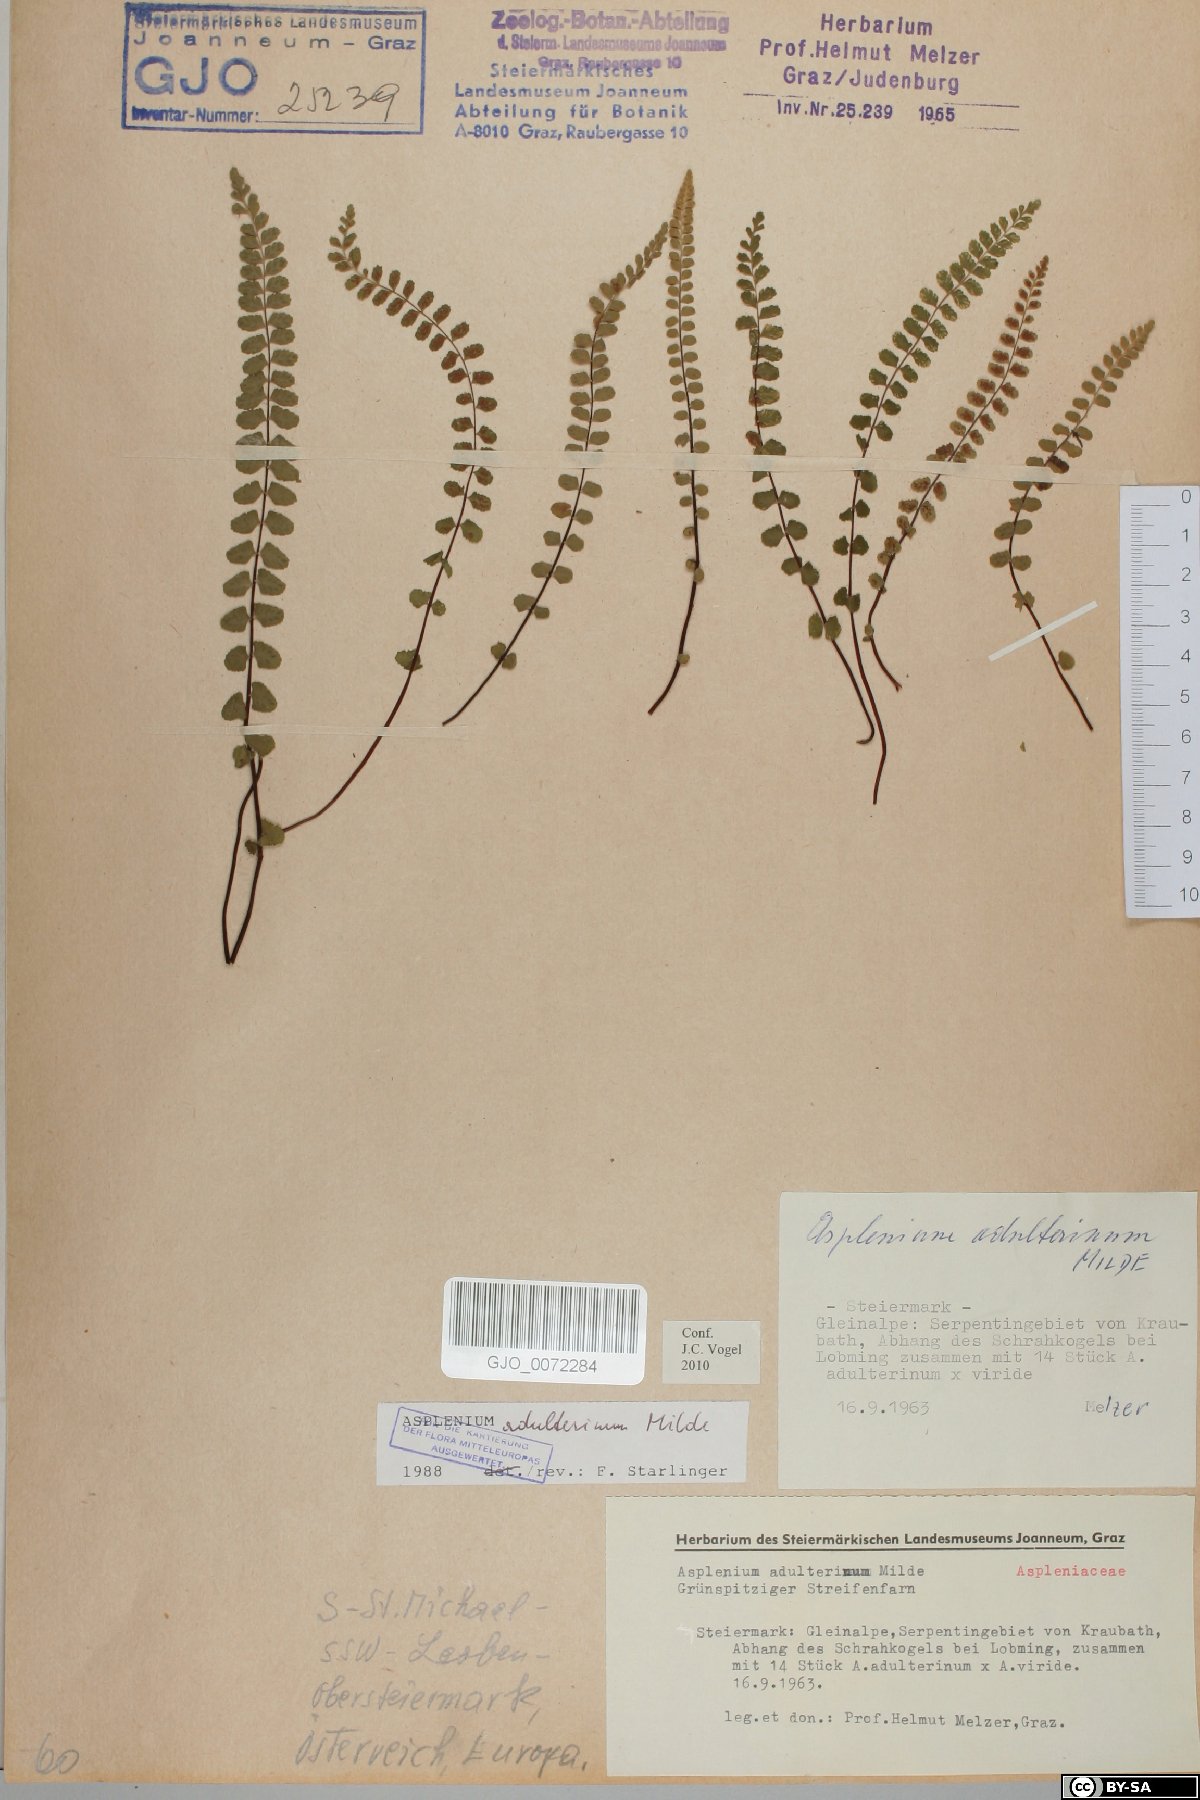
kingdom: Plantae
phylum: Tracheophyta
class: Polypodiopsida
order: Polypodiales
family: Aspleniaceae
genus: Asplenium
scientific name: Asplenium adulterinum
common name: Adulterated spleenwort
